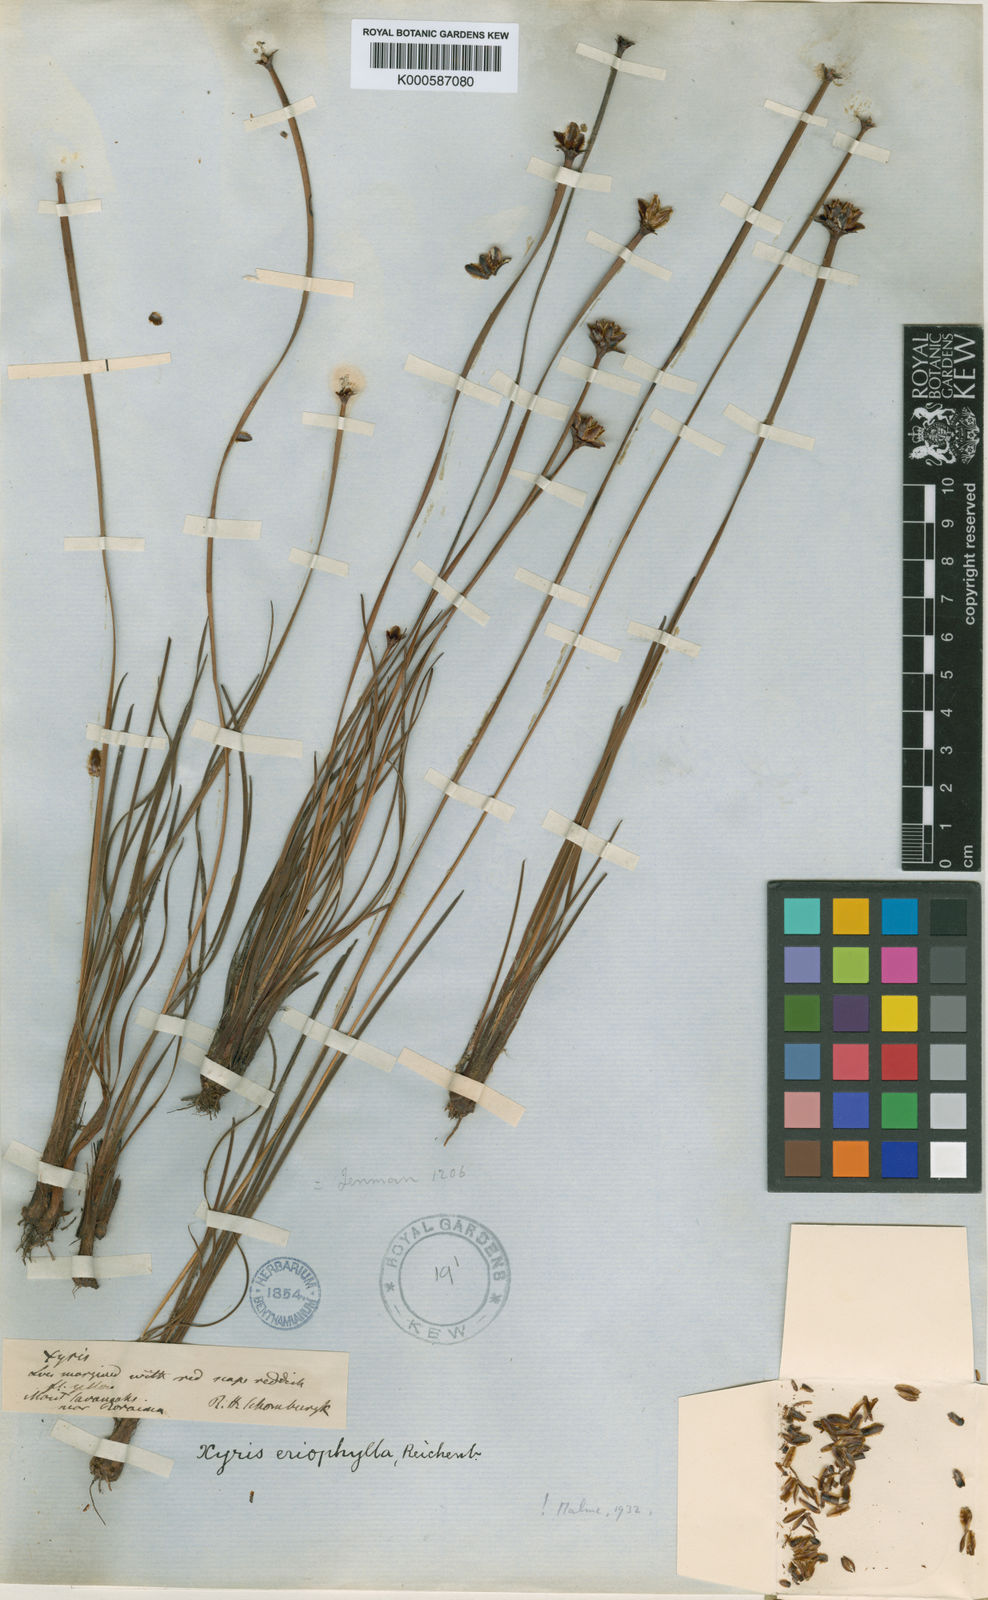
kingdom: Plantae
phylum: Tracheophyta
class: Liliopsida
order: Poales
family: Xyridaceae
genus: Xyris
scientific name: Xyris surinamensis
